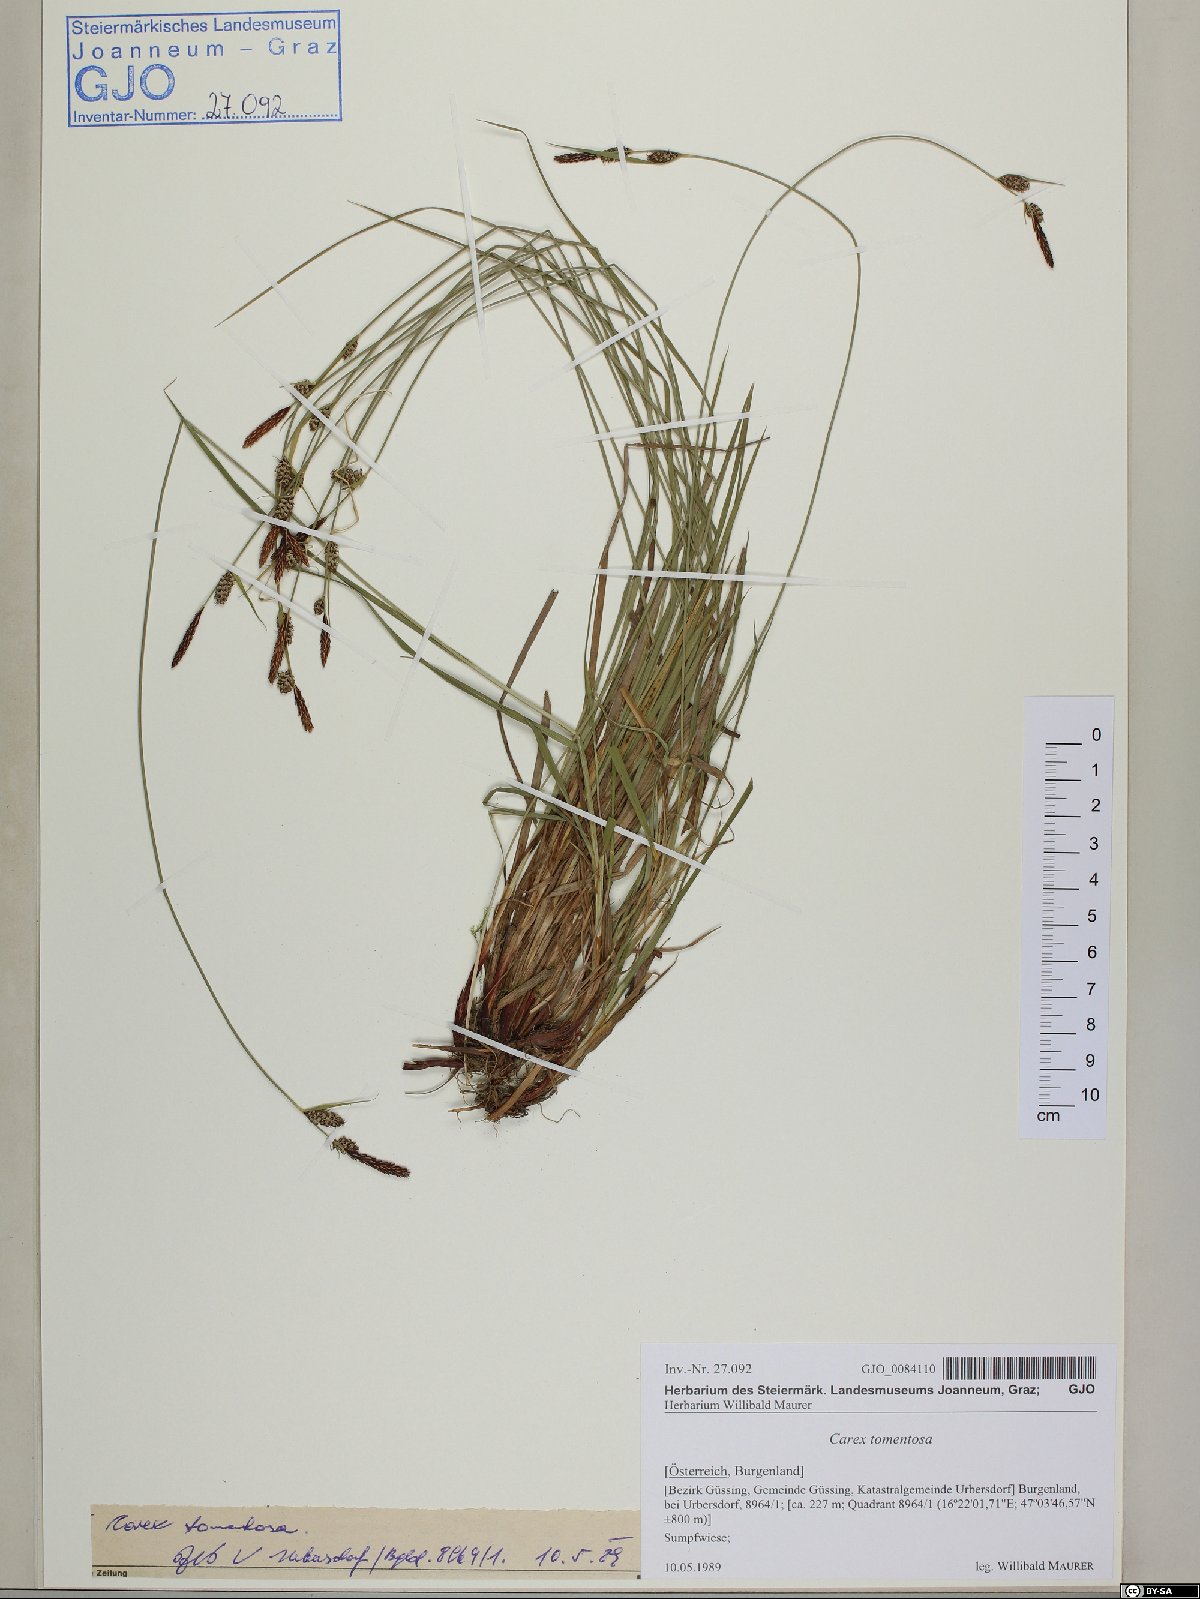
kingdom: Plantae
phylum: Tracheophyta
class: Liliopsida
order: Poales
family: Cyperaceae
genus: Carex
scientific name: Carex tomentosa
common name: Downy-fruited sedge
